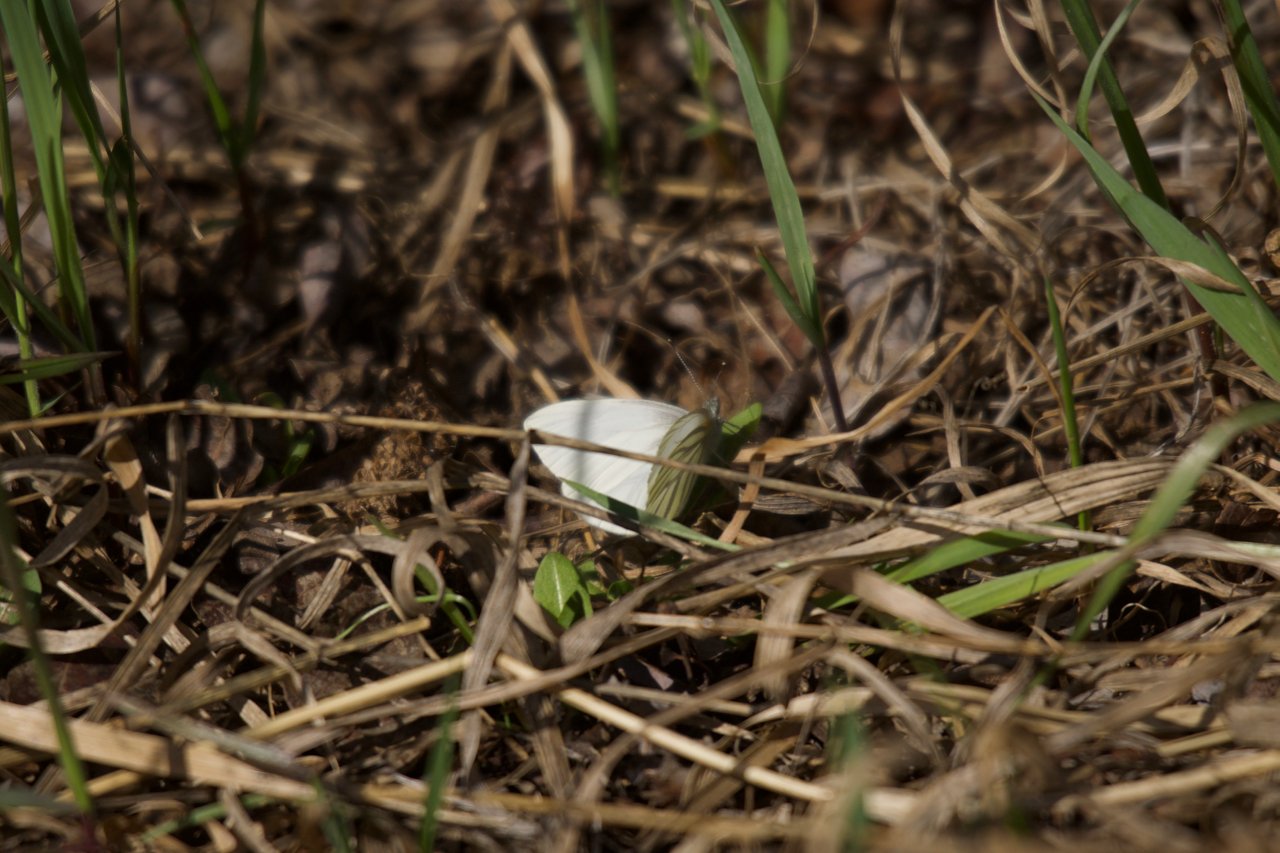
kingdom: Animalia
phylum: Arthropoda
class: Insecta
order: Lepidoptera
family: Pieridae
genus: Pieris
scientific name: Pieris oleracea
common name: Mustard White
